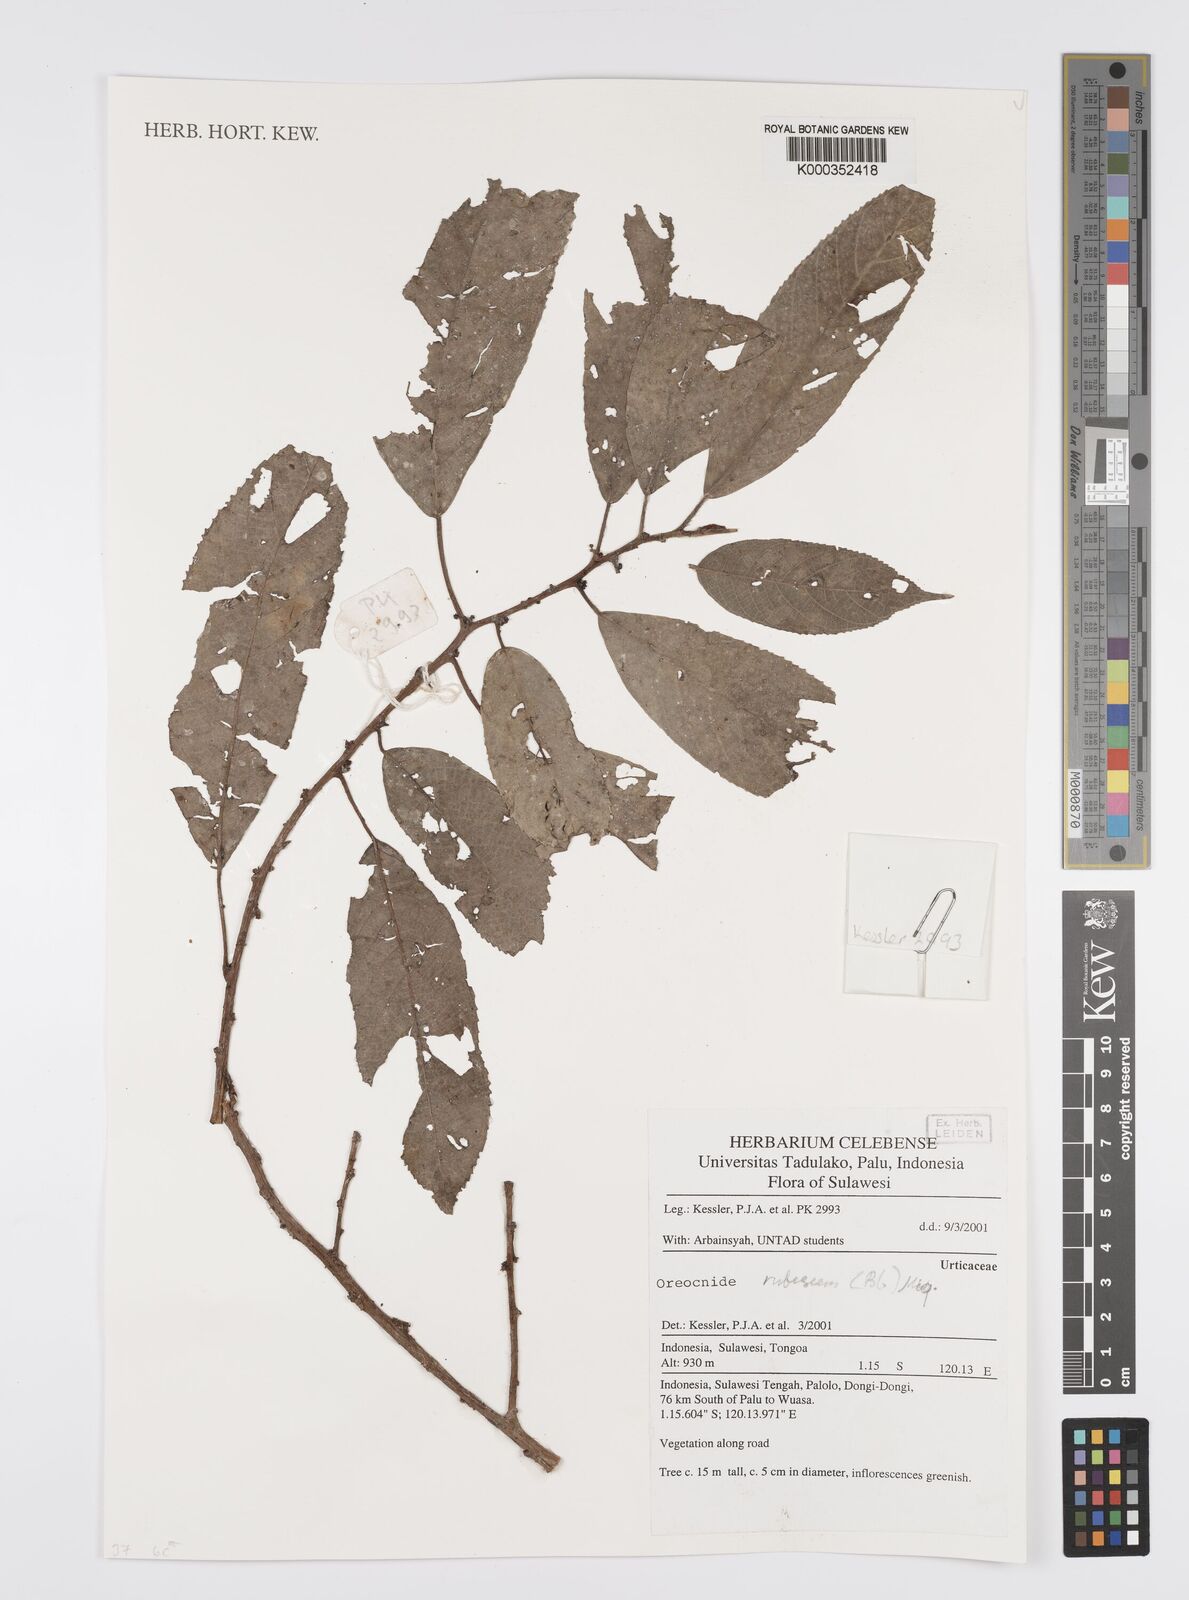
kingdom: Plantae
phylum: Tracheophyta
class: Magnoliopsida
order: Rosales
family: Urticaceae
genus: Oreocnide
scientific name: Oreocnide rubescens
